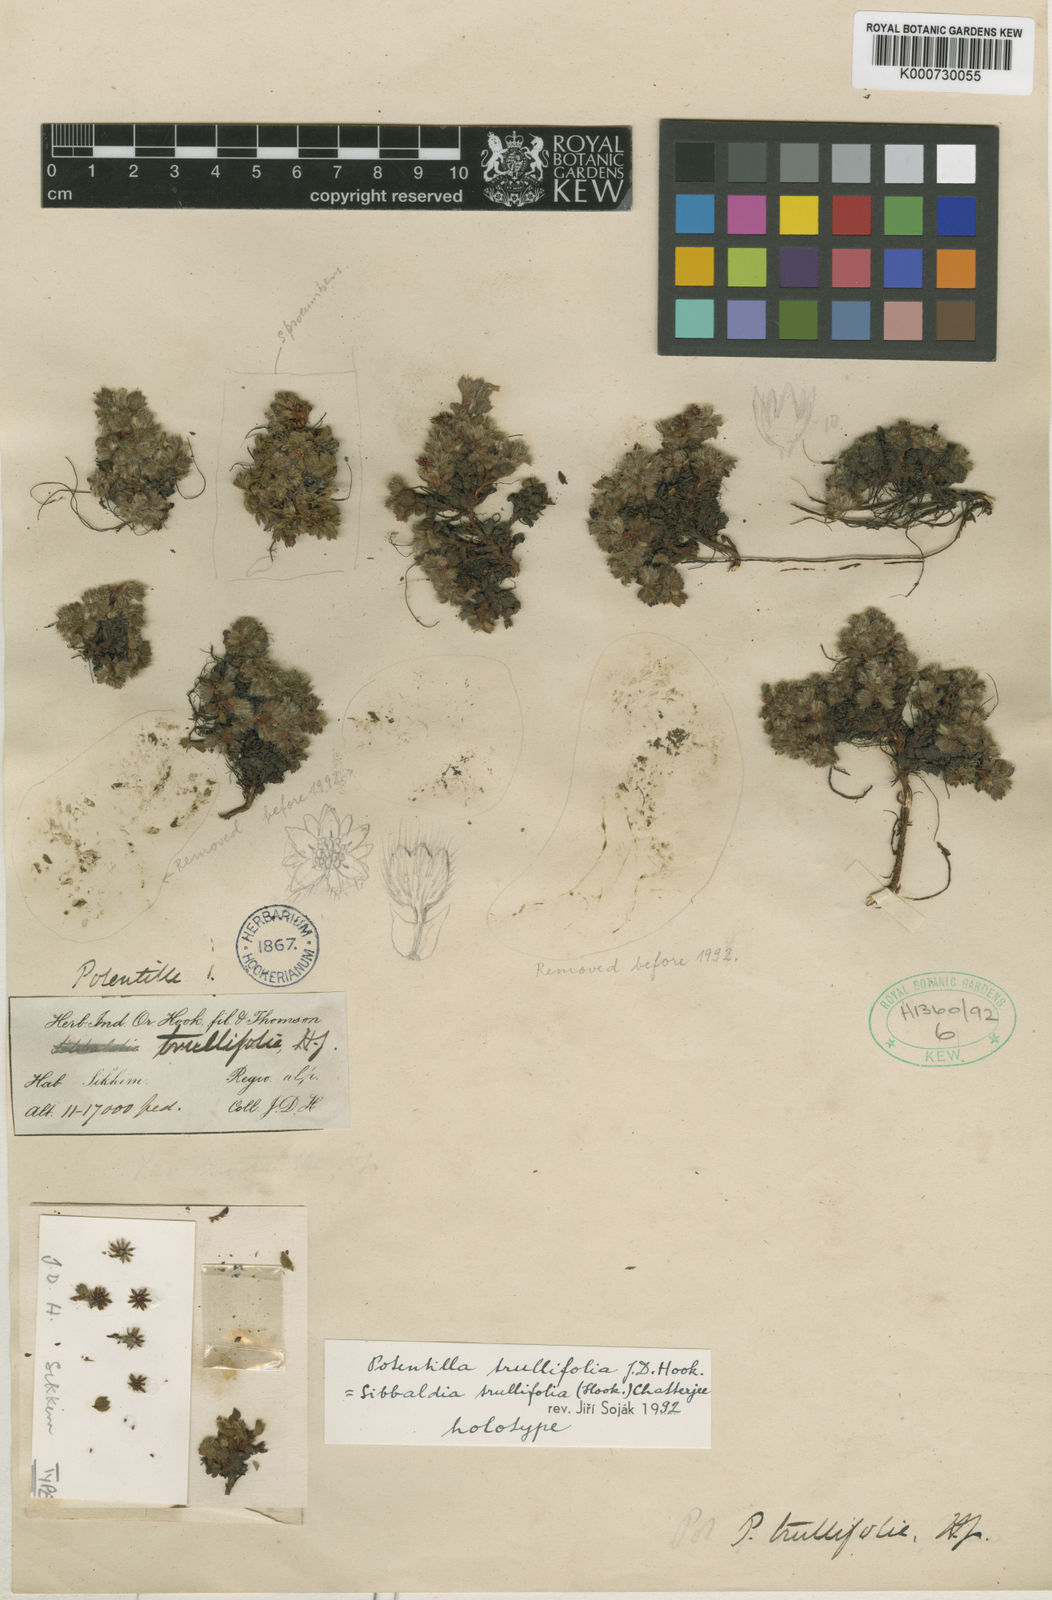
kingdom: Plantae
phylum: Tracheophyta
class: Magnoliopsida
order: Rosales
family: Rosaceae
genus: Sibbaldia
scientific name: Sibbaldia trullifolia
